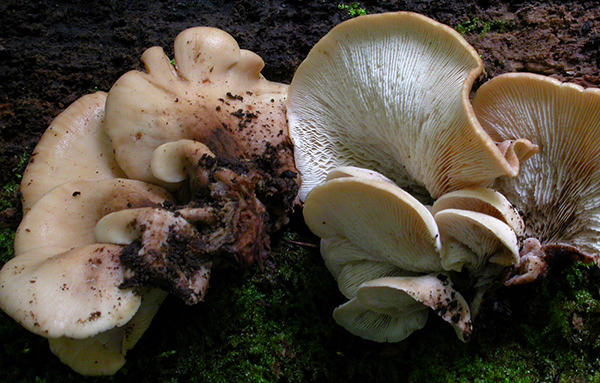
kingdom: Fungi
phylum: Basidiomycota
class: Agaricomycetes
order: Russulales
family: Auriscalpiaceae
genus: Lentinellus
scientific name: Lentinellus ursinus
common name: børstehåret savbladhat
